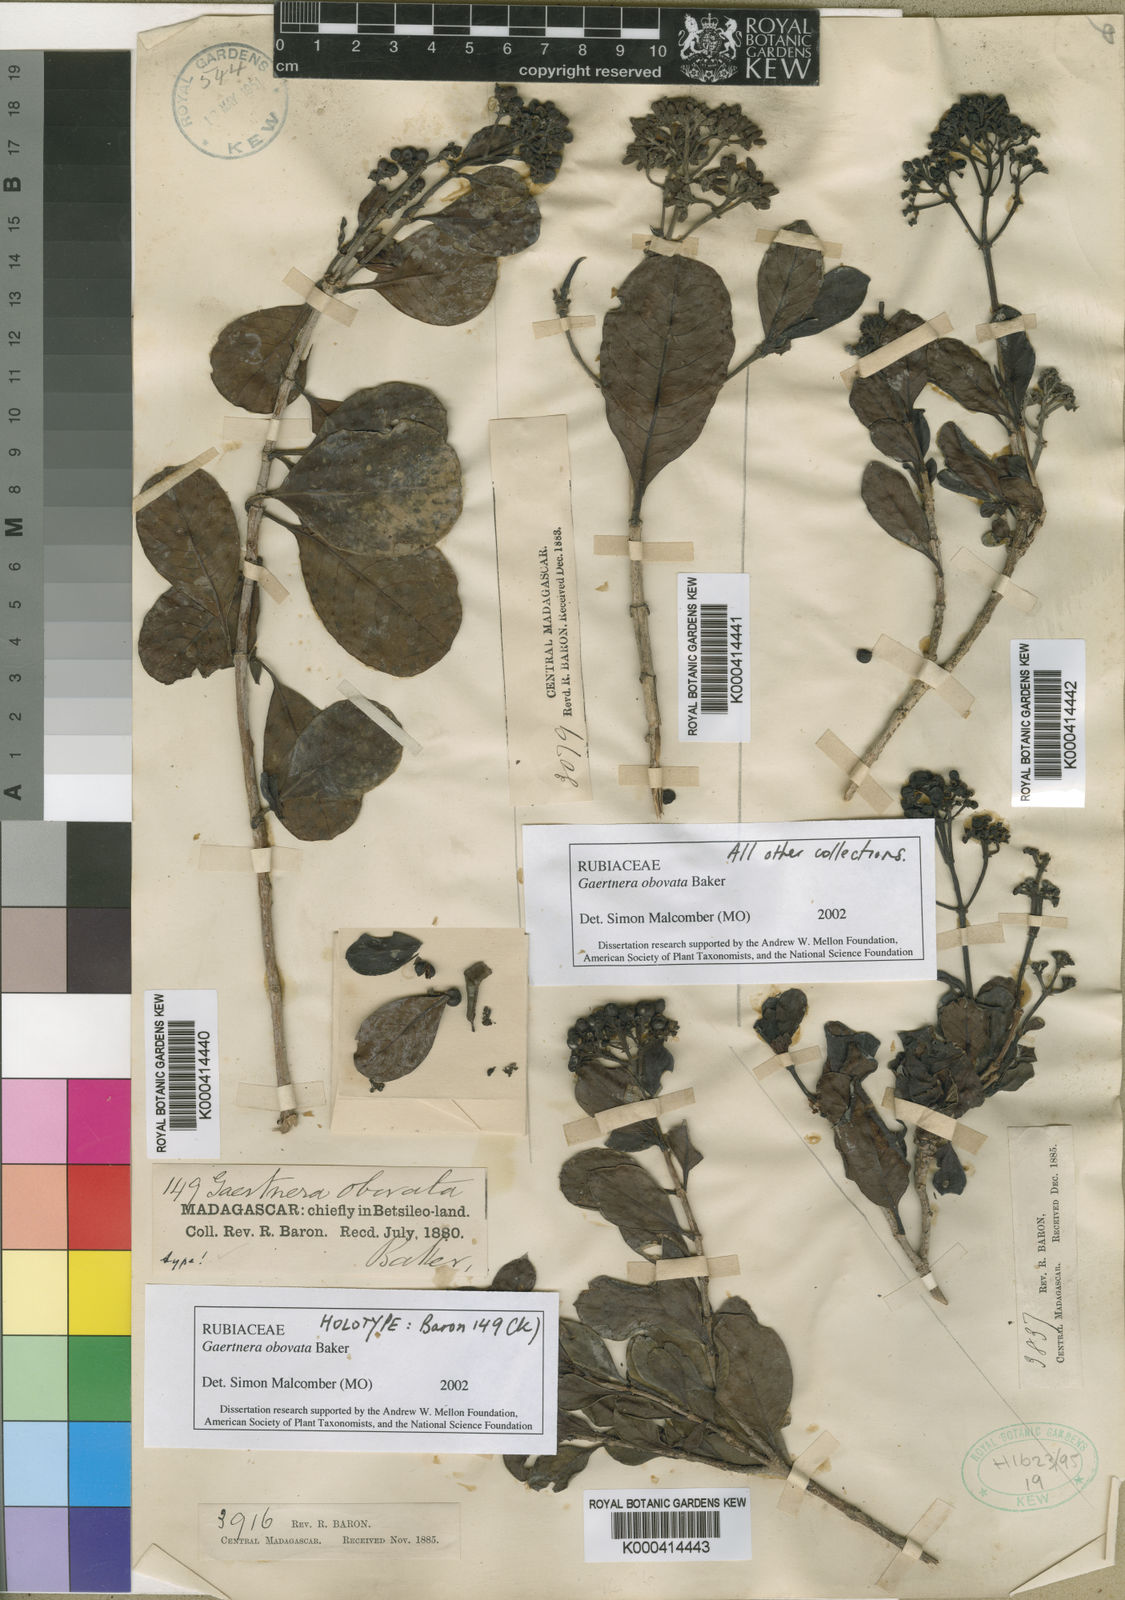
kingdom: Plantae
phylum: Tracheophyta
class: Magnoliopsida
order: Gentianales
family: Rubiaceae
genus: Gaertnera
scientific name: Gaertnera obovata
